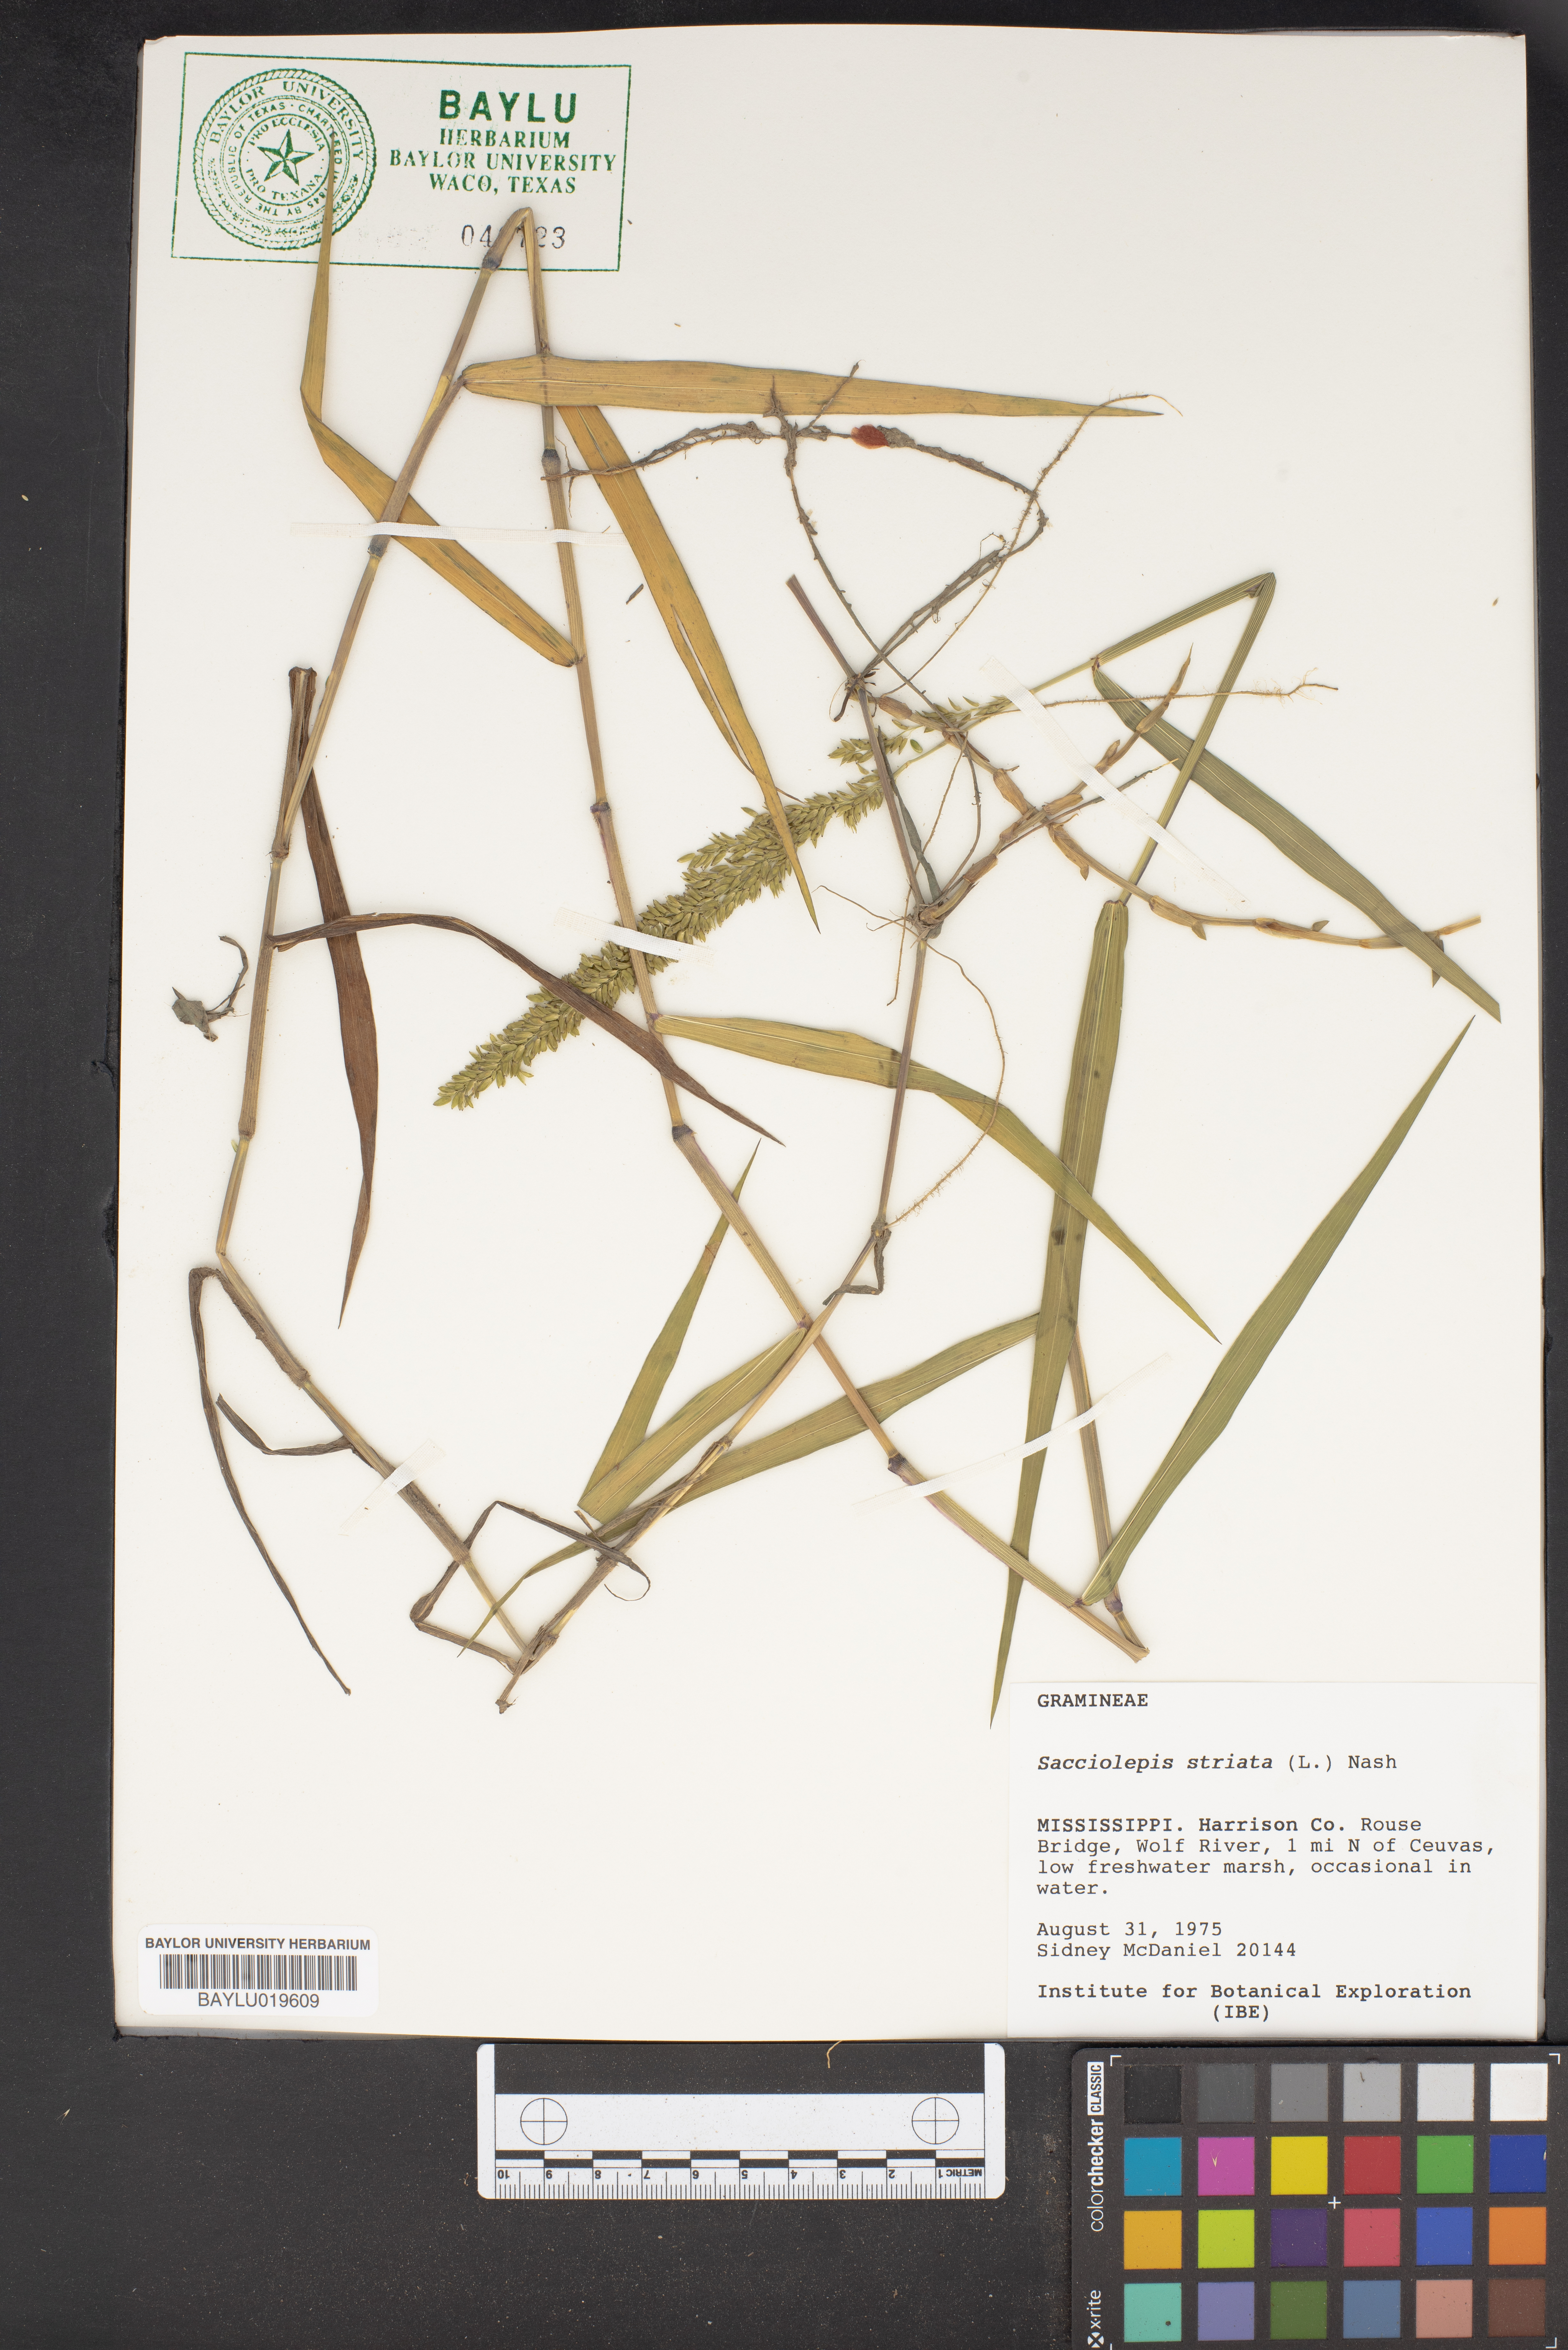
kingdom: Plantae
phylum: Tracheophyta
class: Liliopsida
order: Poales
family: Poaceae
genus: Sacciolepis
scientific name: Sacciolepis striata
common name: American cupscale
